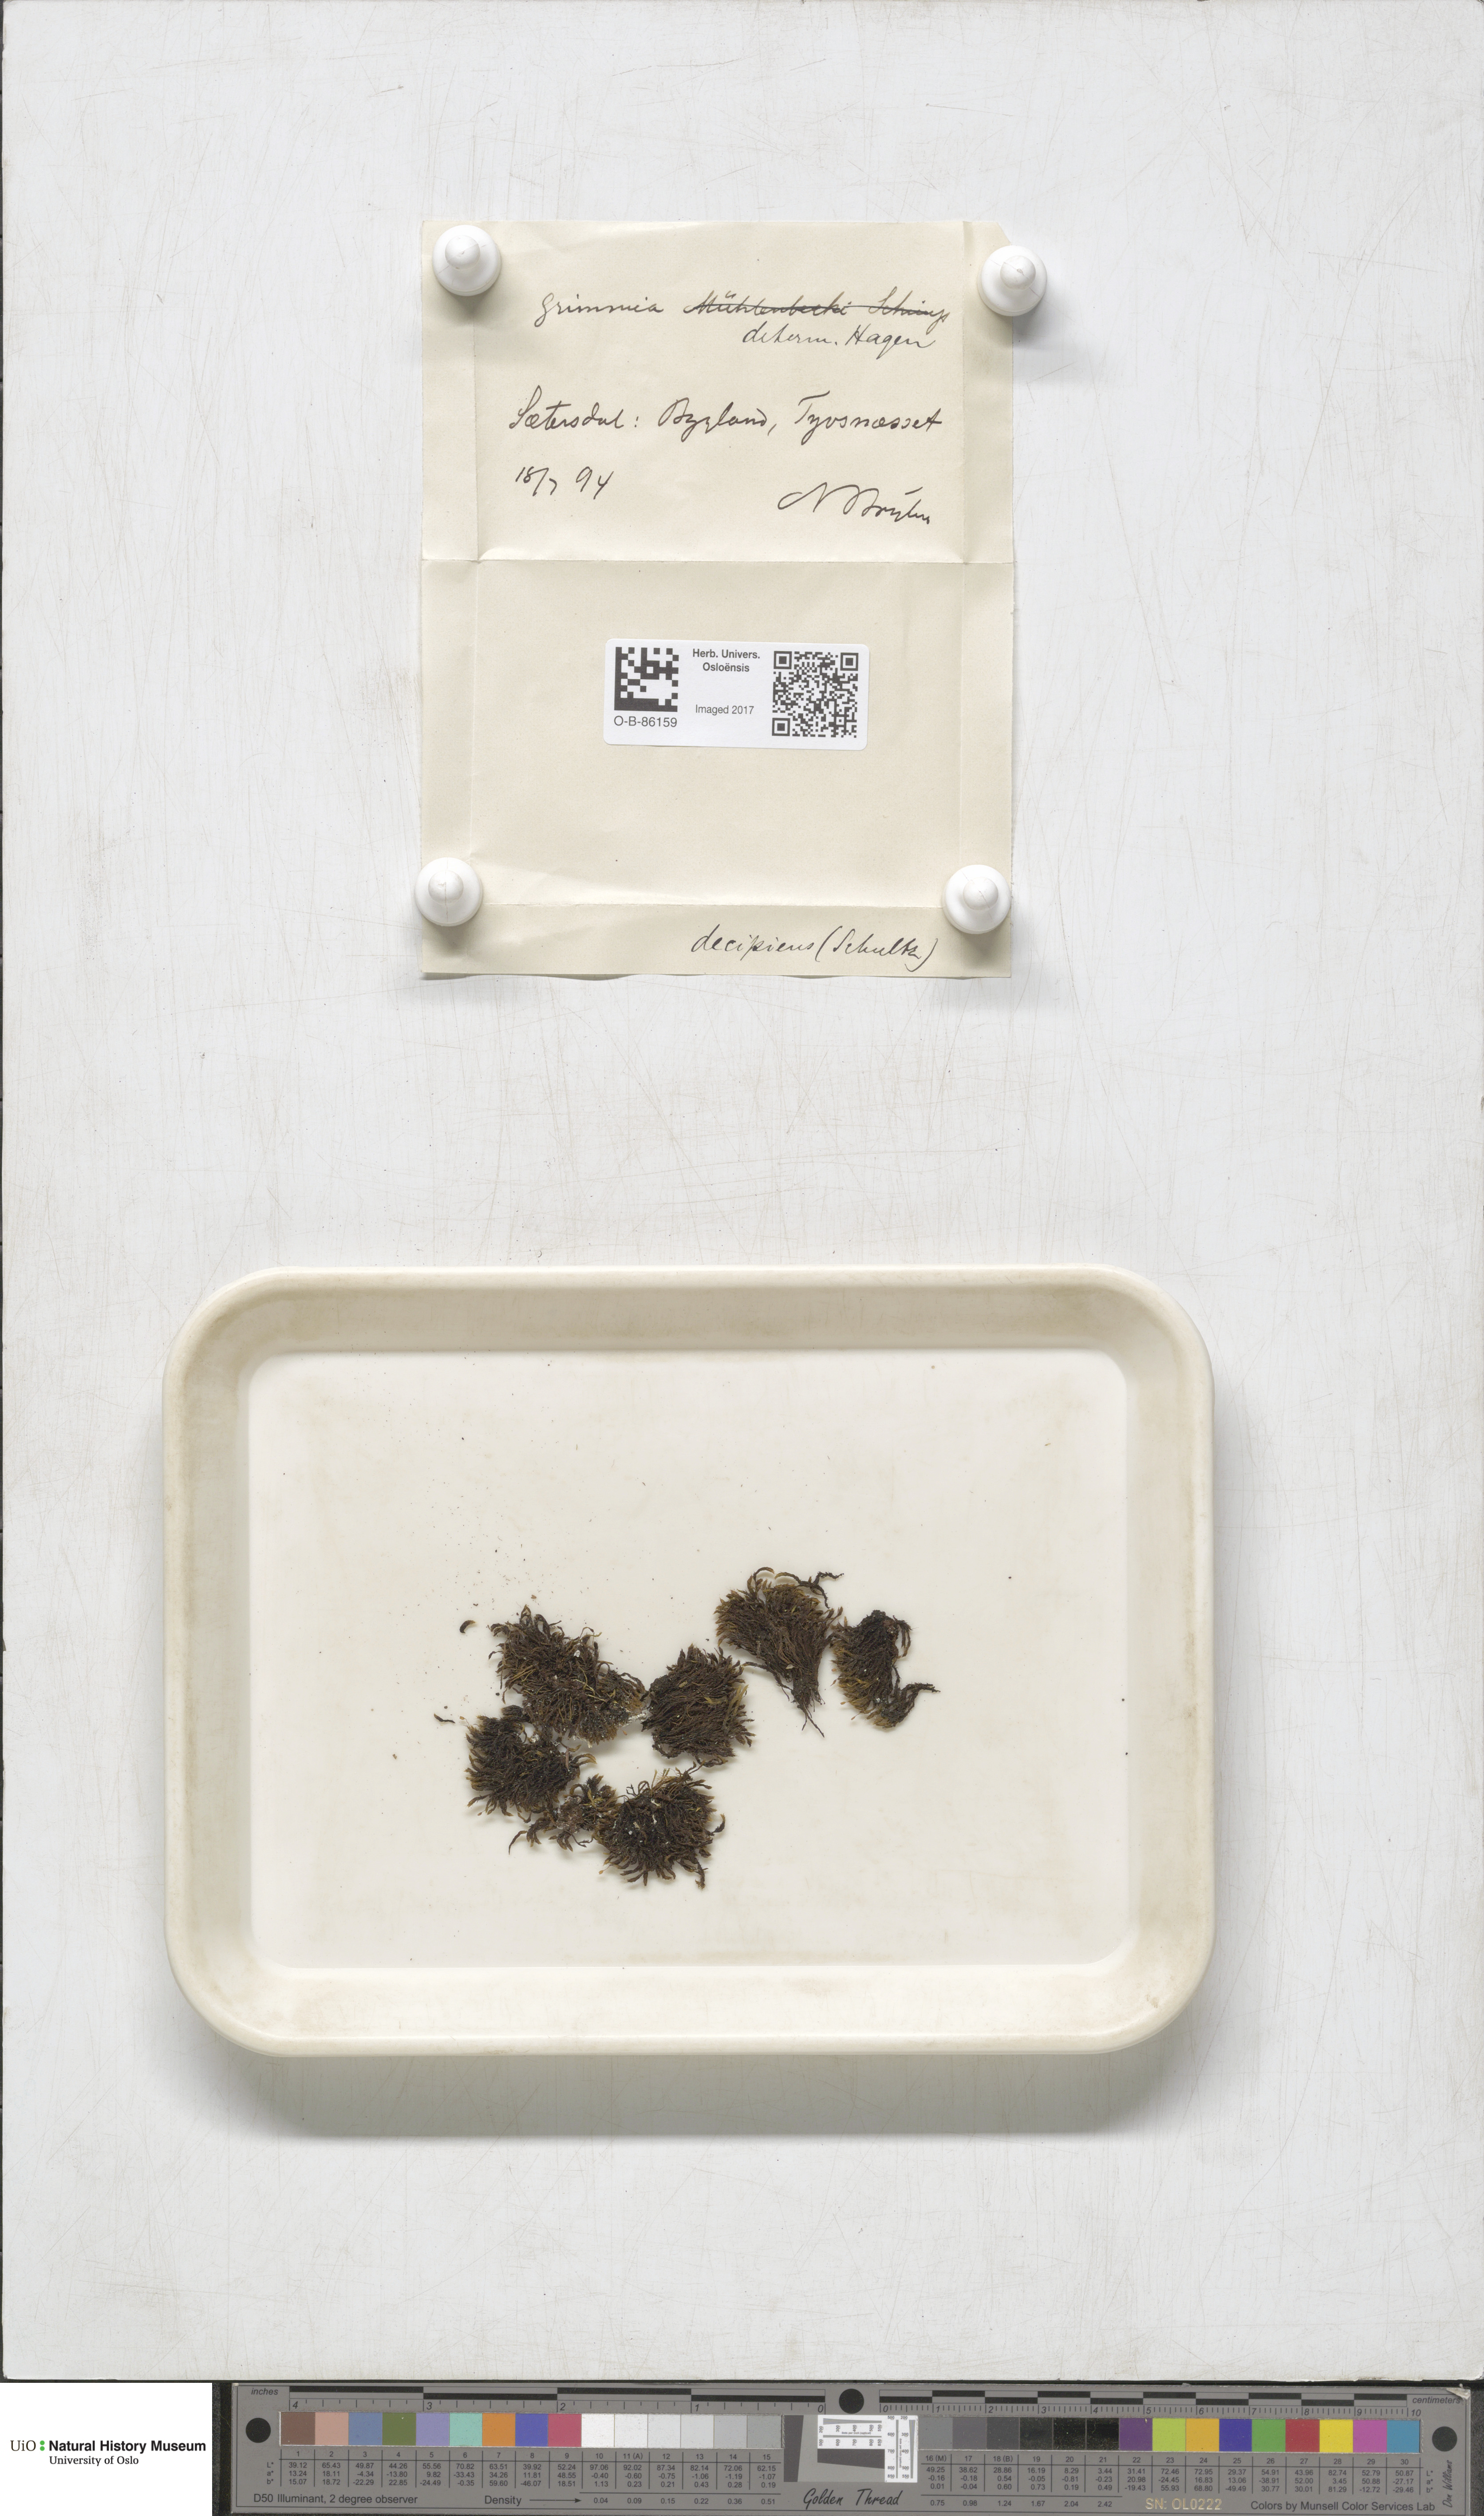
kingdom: Plantae
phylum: Bryophyta
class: Bryopsida
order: Grimmiales
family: Grimmiaceae
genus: Grimmia
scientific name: Grimmia decipiens
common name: Great grimmia
